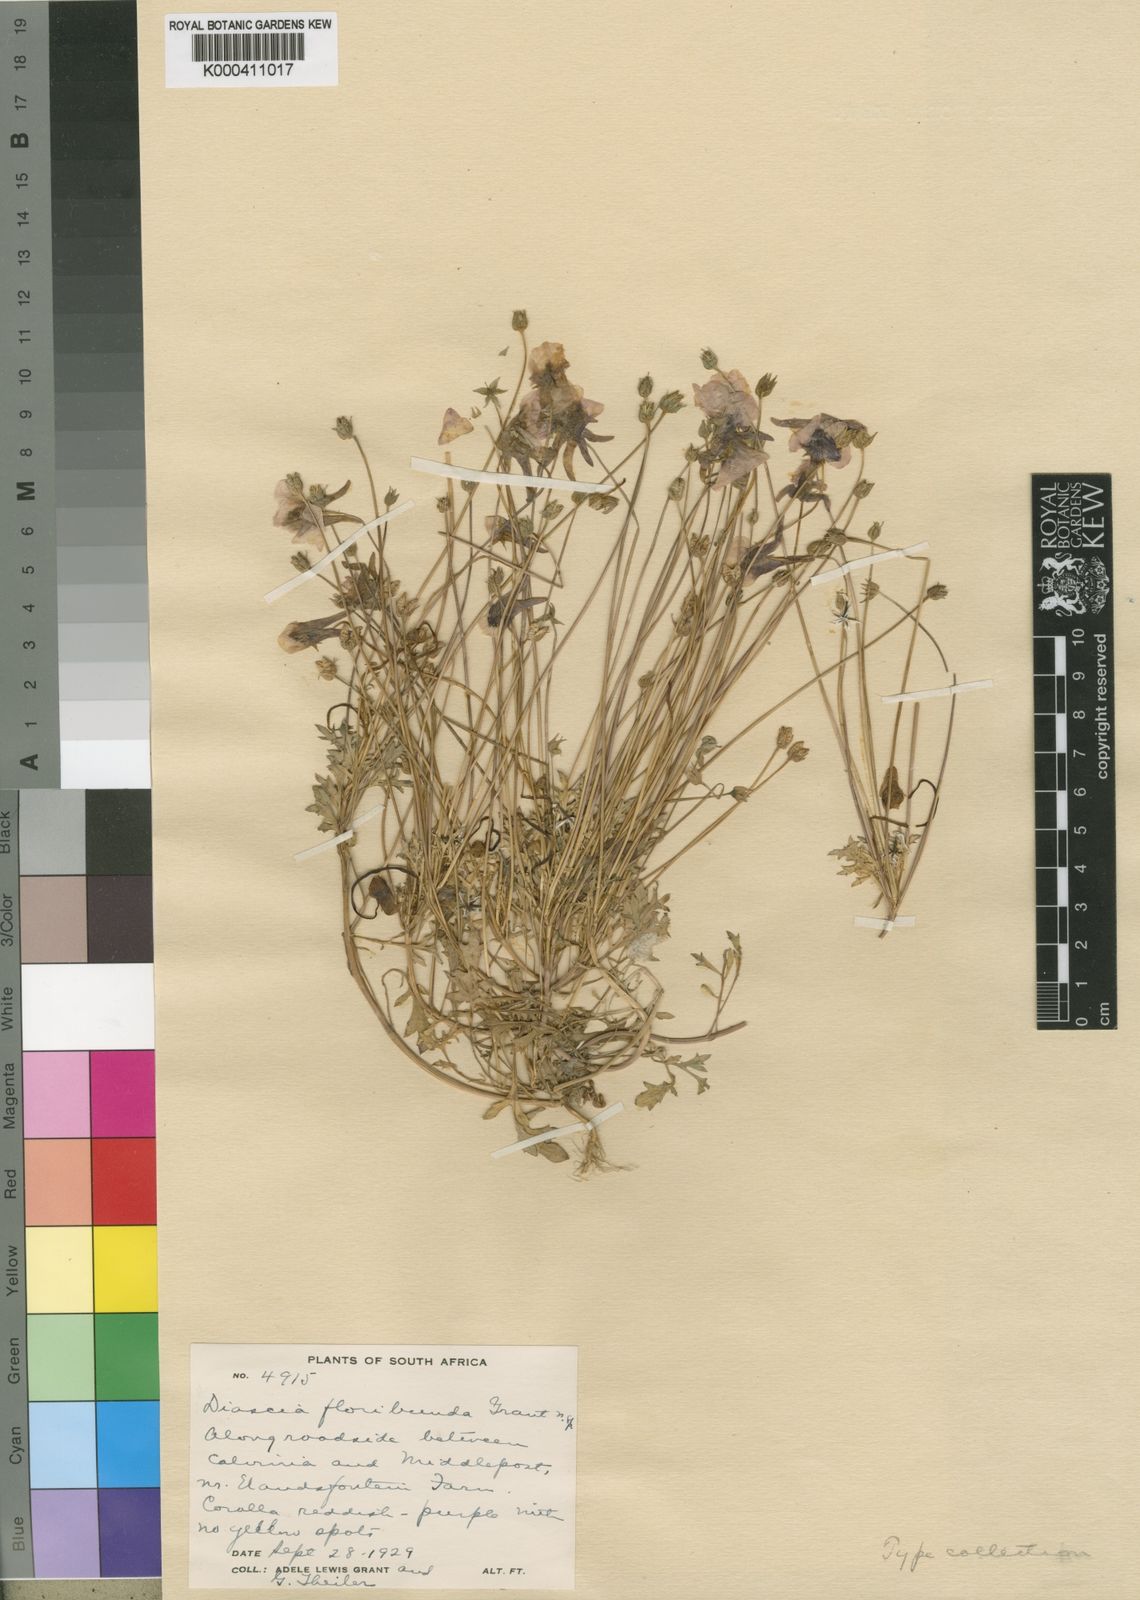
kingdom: Plantae
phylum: Tracheophyta
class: Magnoliopsida
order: Lamiales
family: Scrophulariaceae
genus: Diascia
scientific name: Diascia
